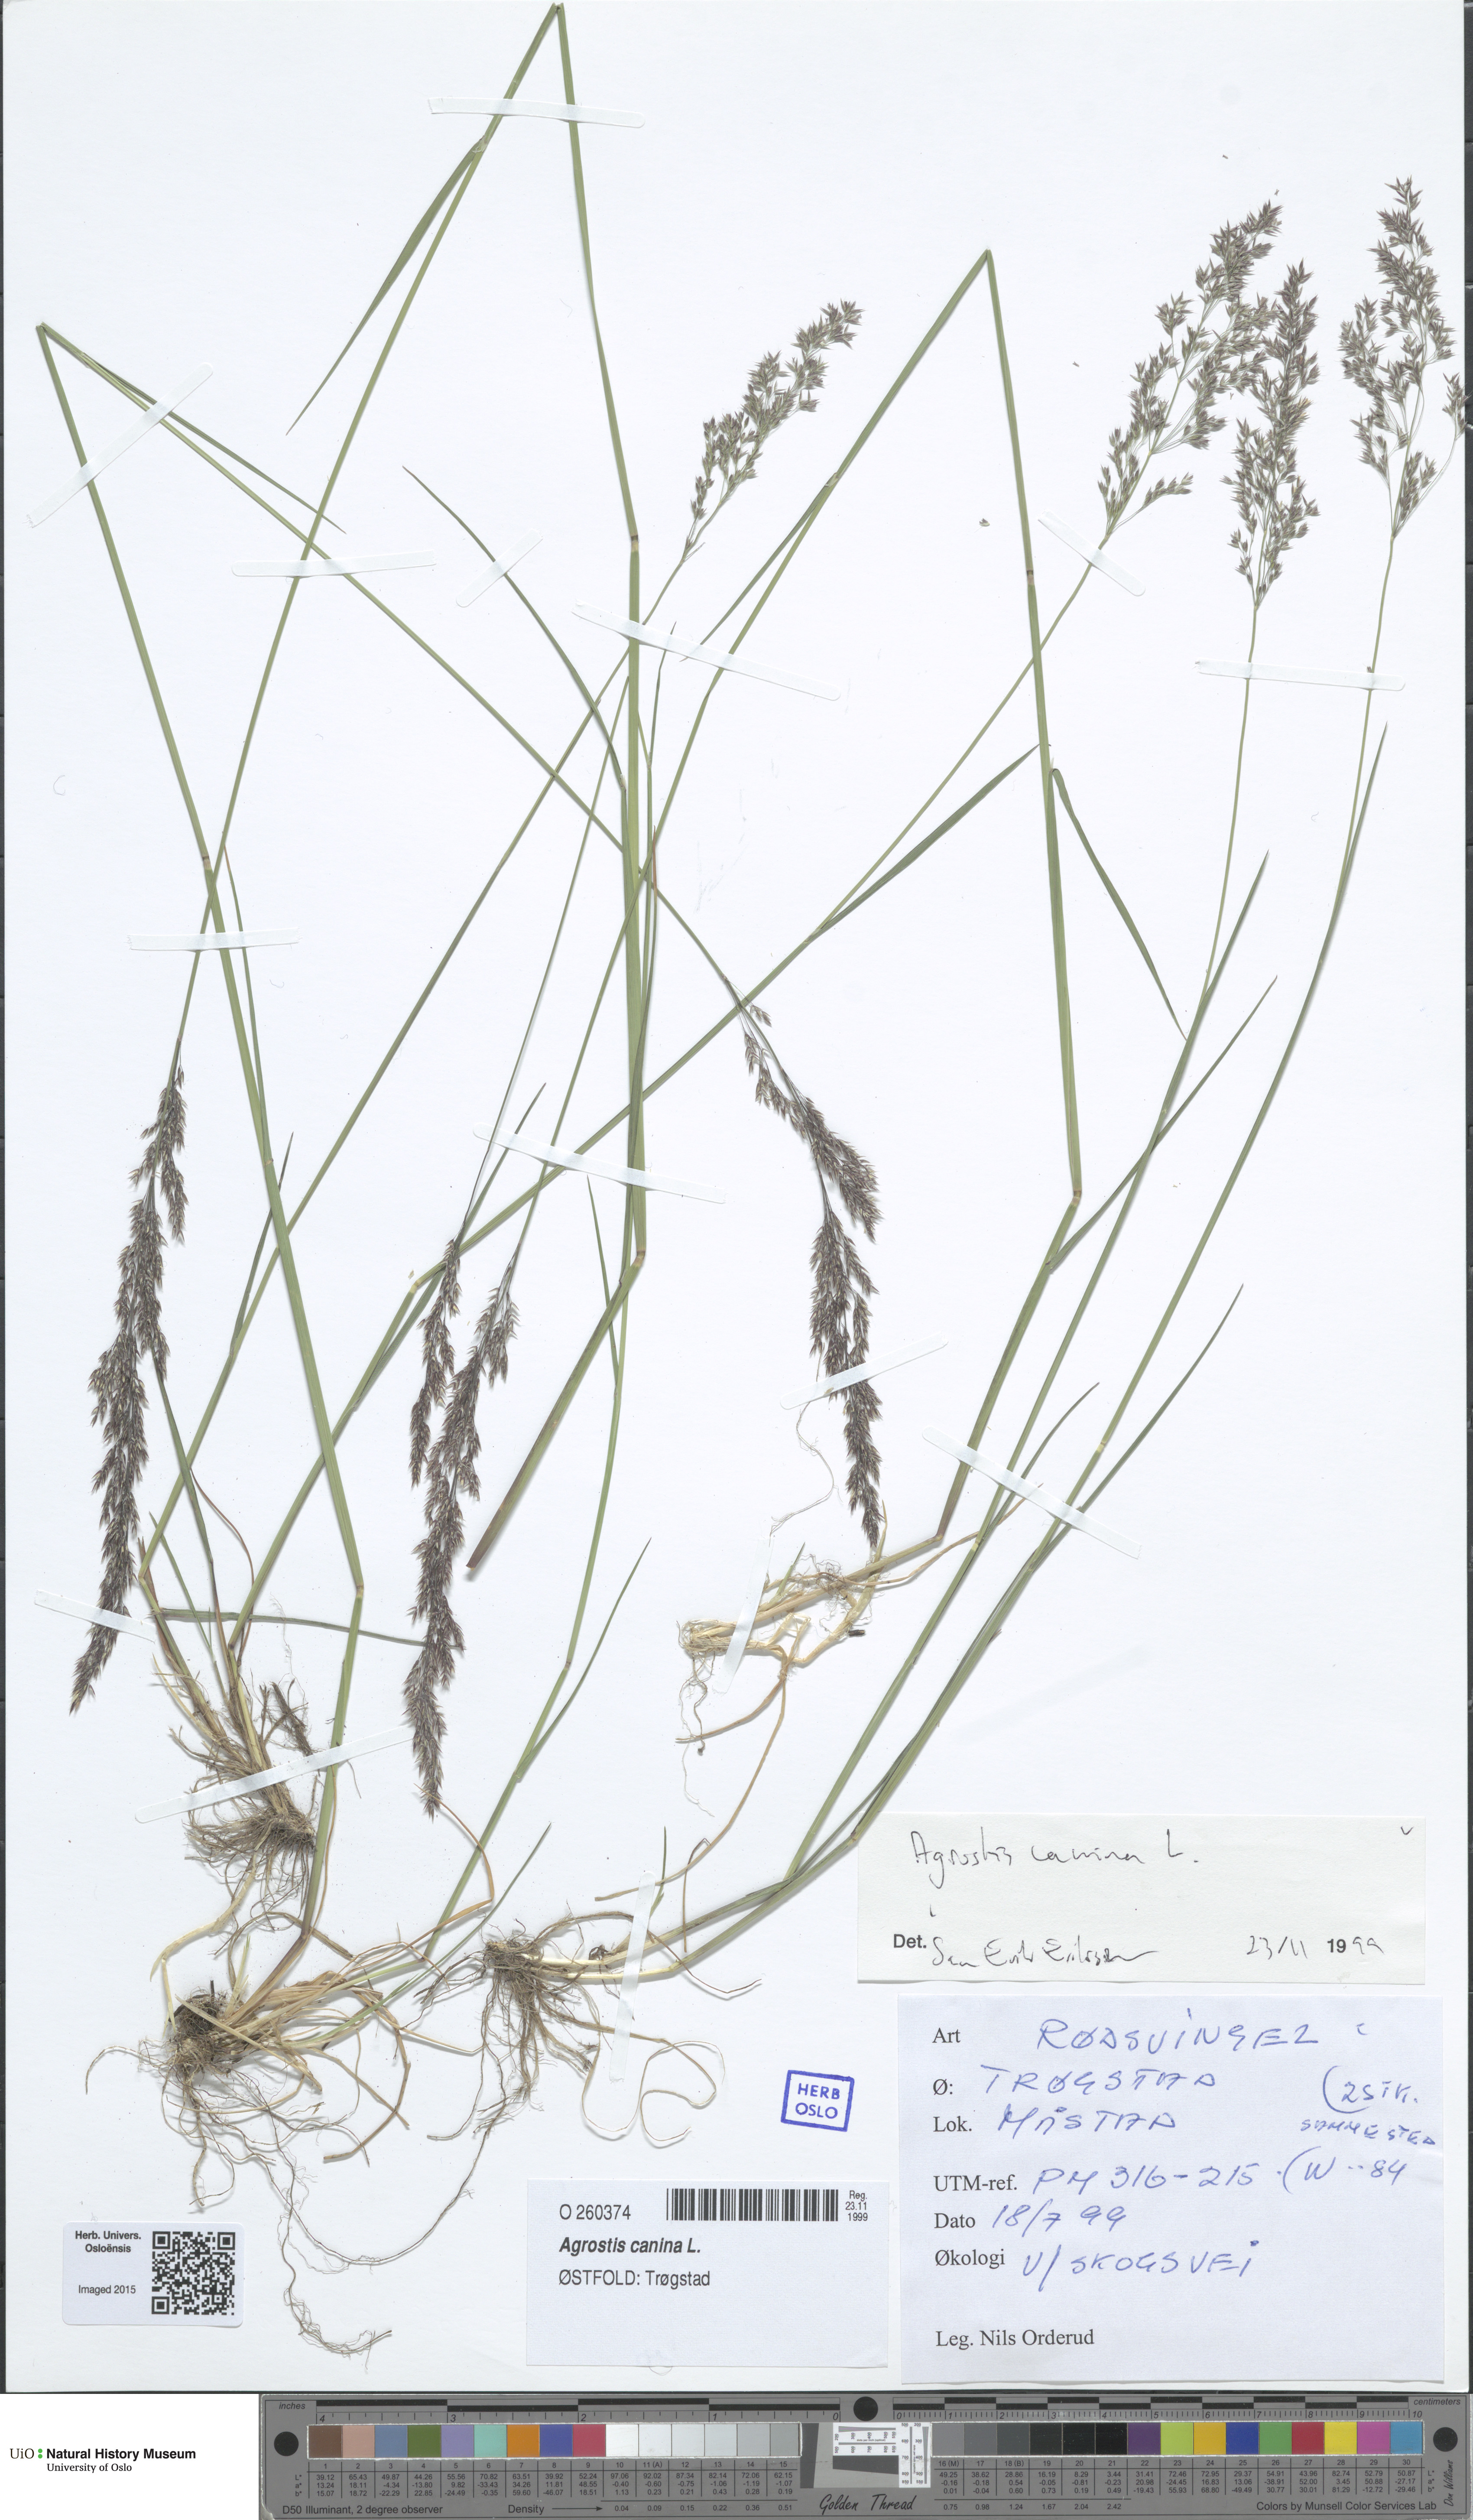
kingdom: Plantae
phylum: Tracheophyta
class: Liliopsida
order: Poales
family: Poaceae
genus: Agrostis
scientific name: Agrostis canina
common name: Velvet bent
